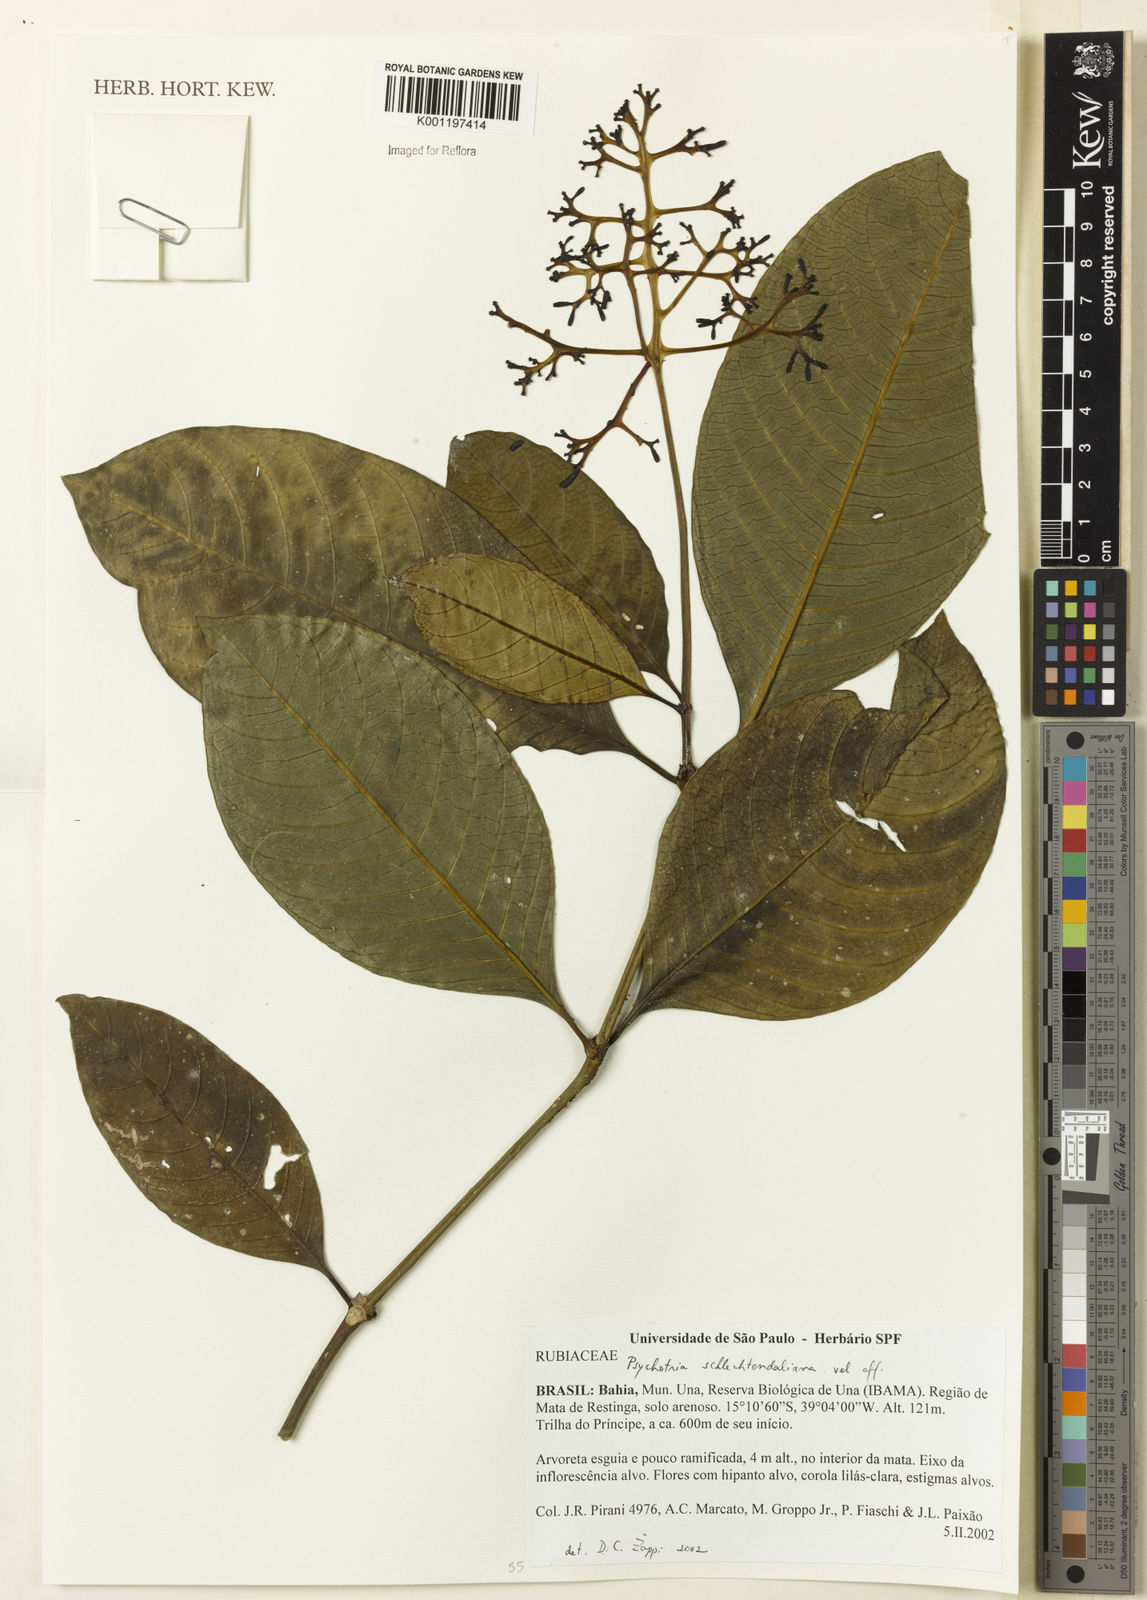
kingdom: Plantae
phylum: Tracheophyta
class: Magnoliopsida
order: Gentianales
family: Rubiaceae
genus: Psychotria
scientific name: Psychotria
